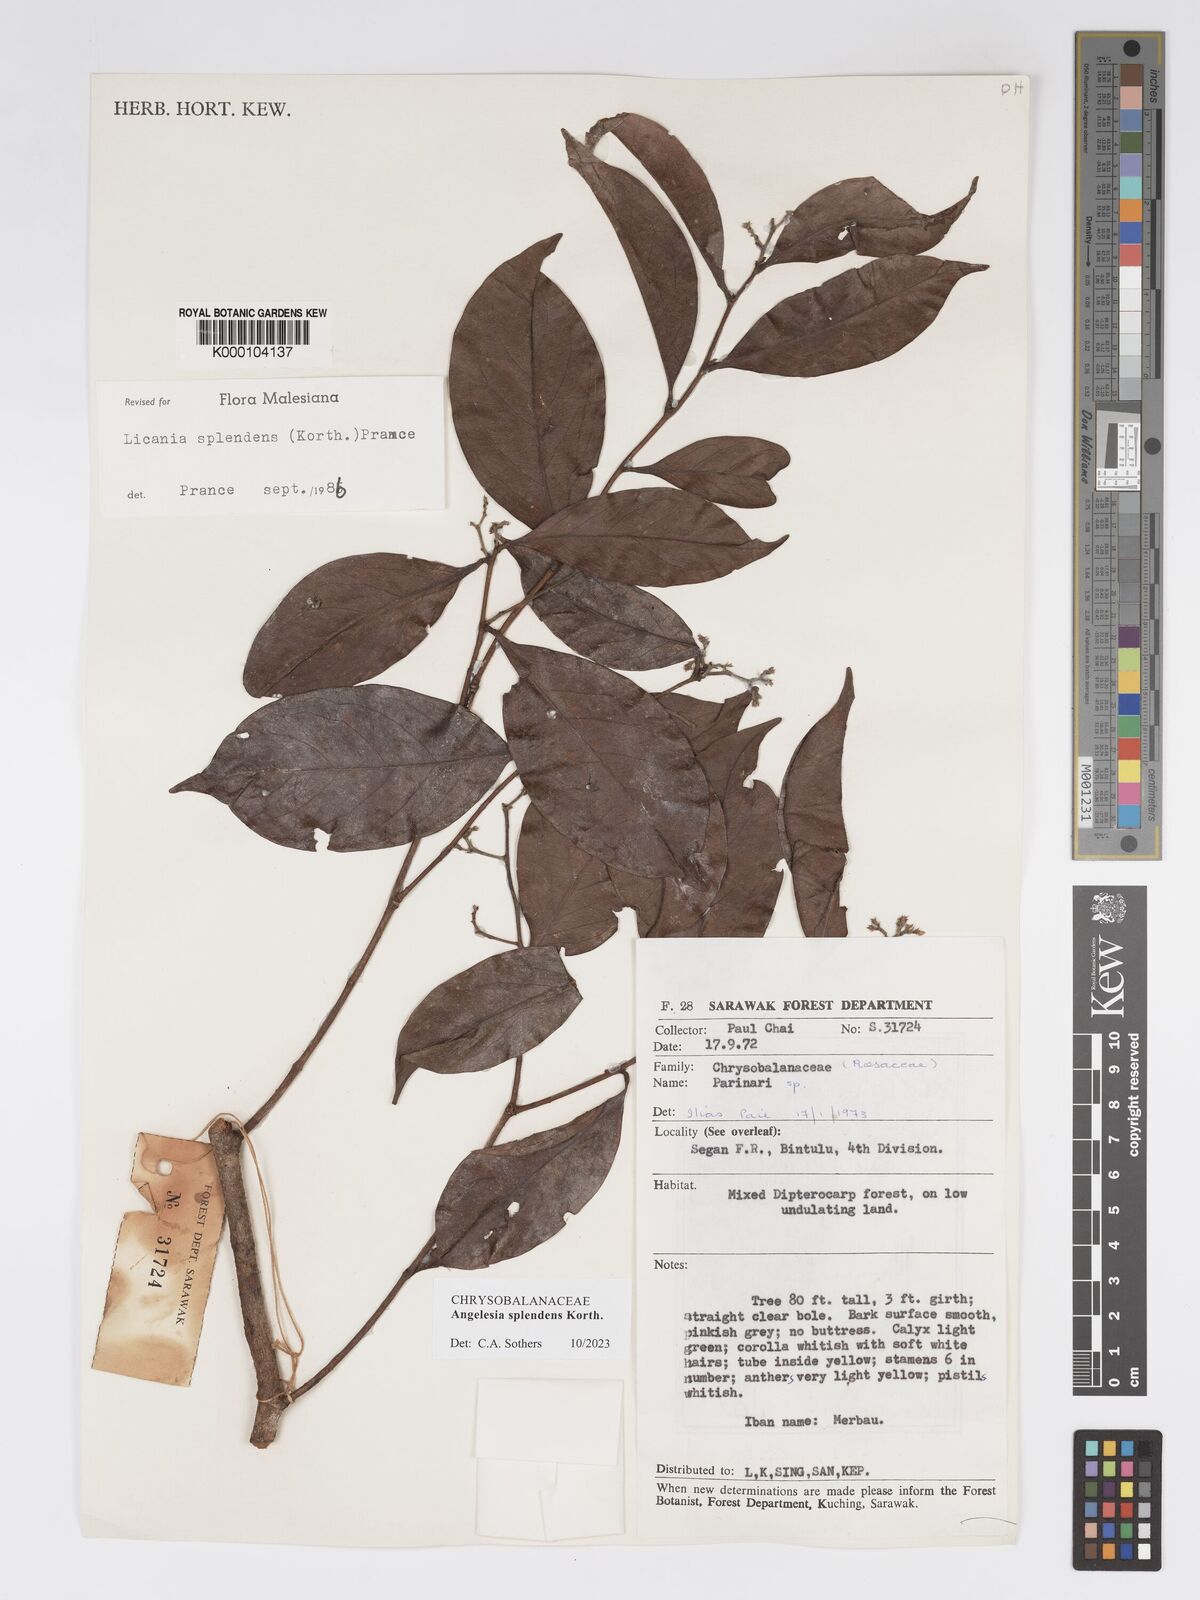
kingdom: Plantae
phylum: Tracheophyta
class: Magnoliopsida
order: Malpighiales
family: Chrysobalanaceae
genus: Angelesia
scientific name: Angelesia splendens
